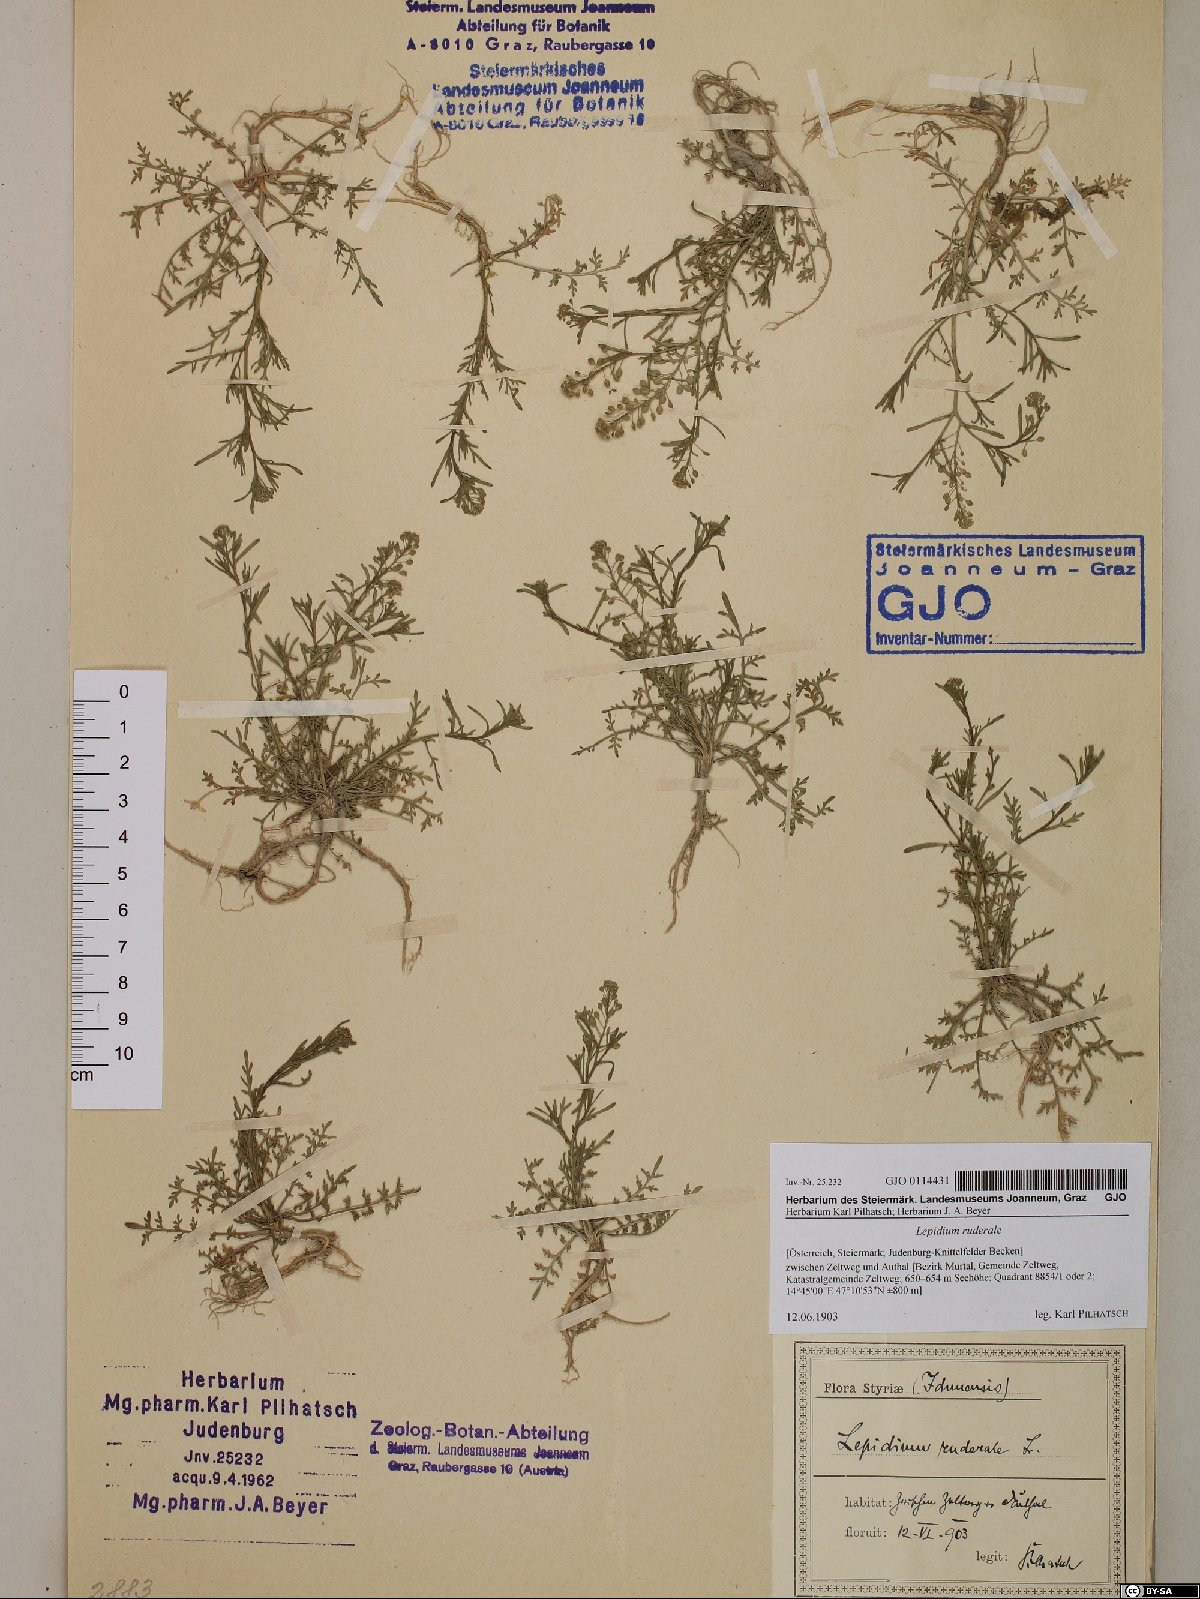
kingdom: Plantae
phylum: Tracheophyta
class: Magnoliopsida
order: Brassicales
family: Brassicaceae
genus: Lepidium
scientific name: Lepidium ruderale
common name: Narrow-leaved pepperwort
